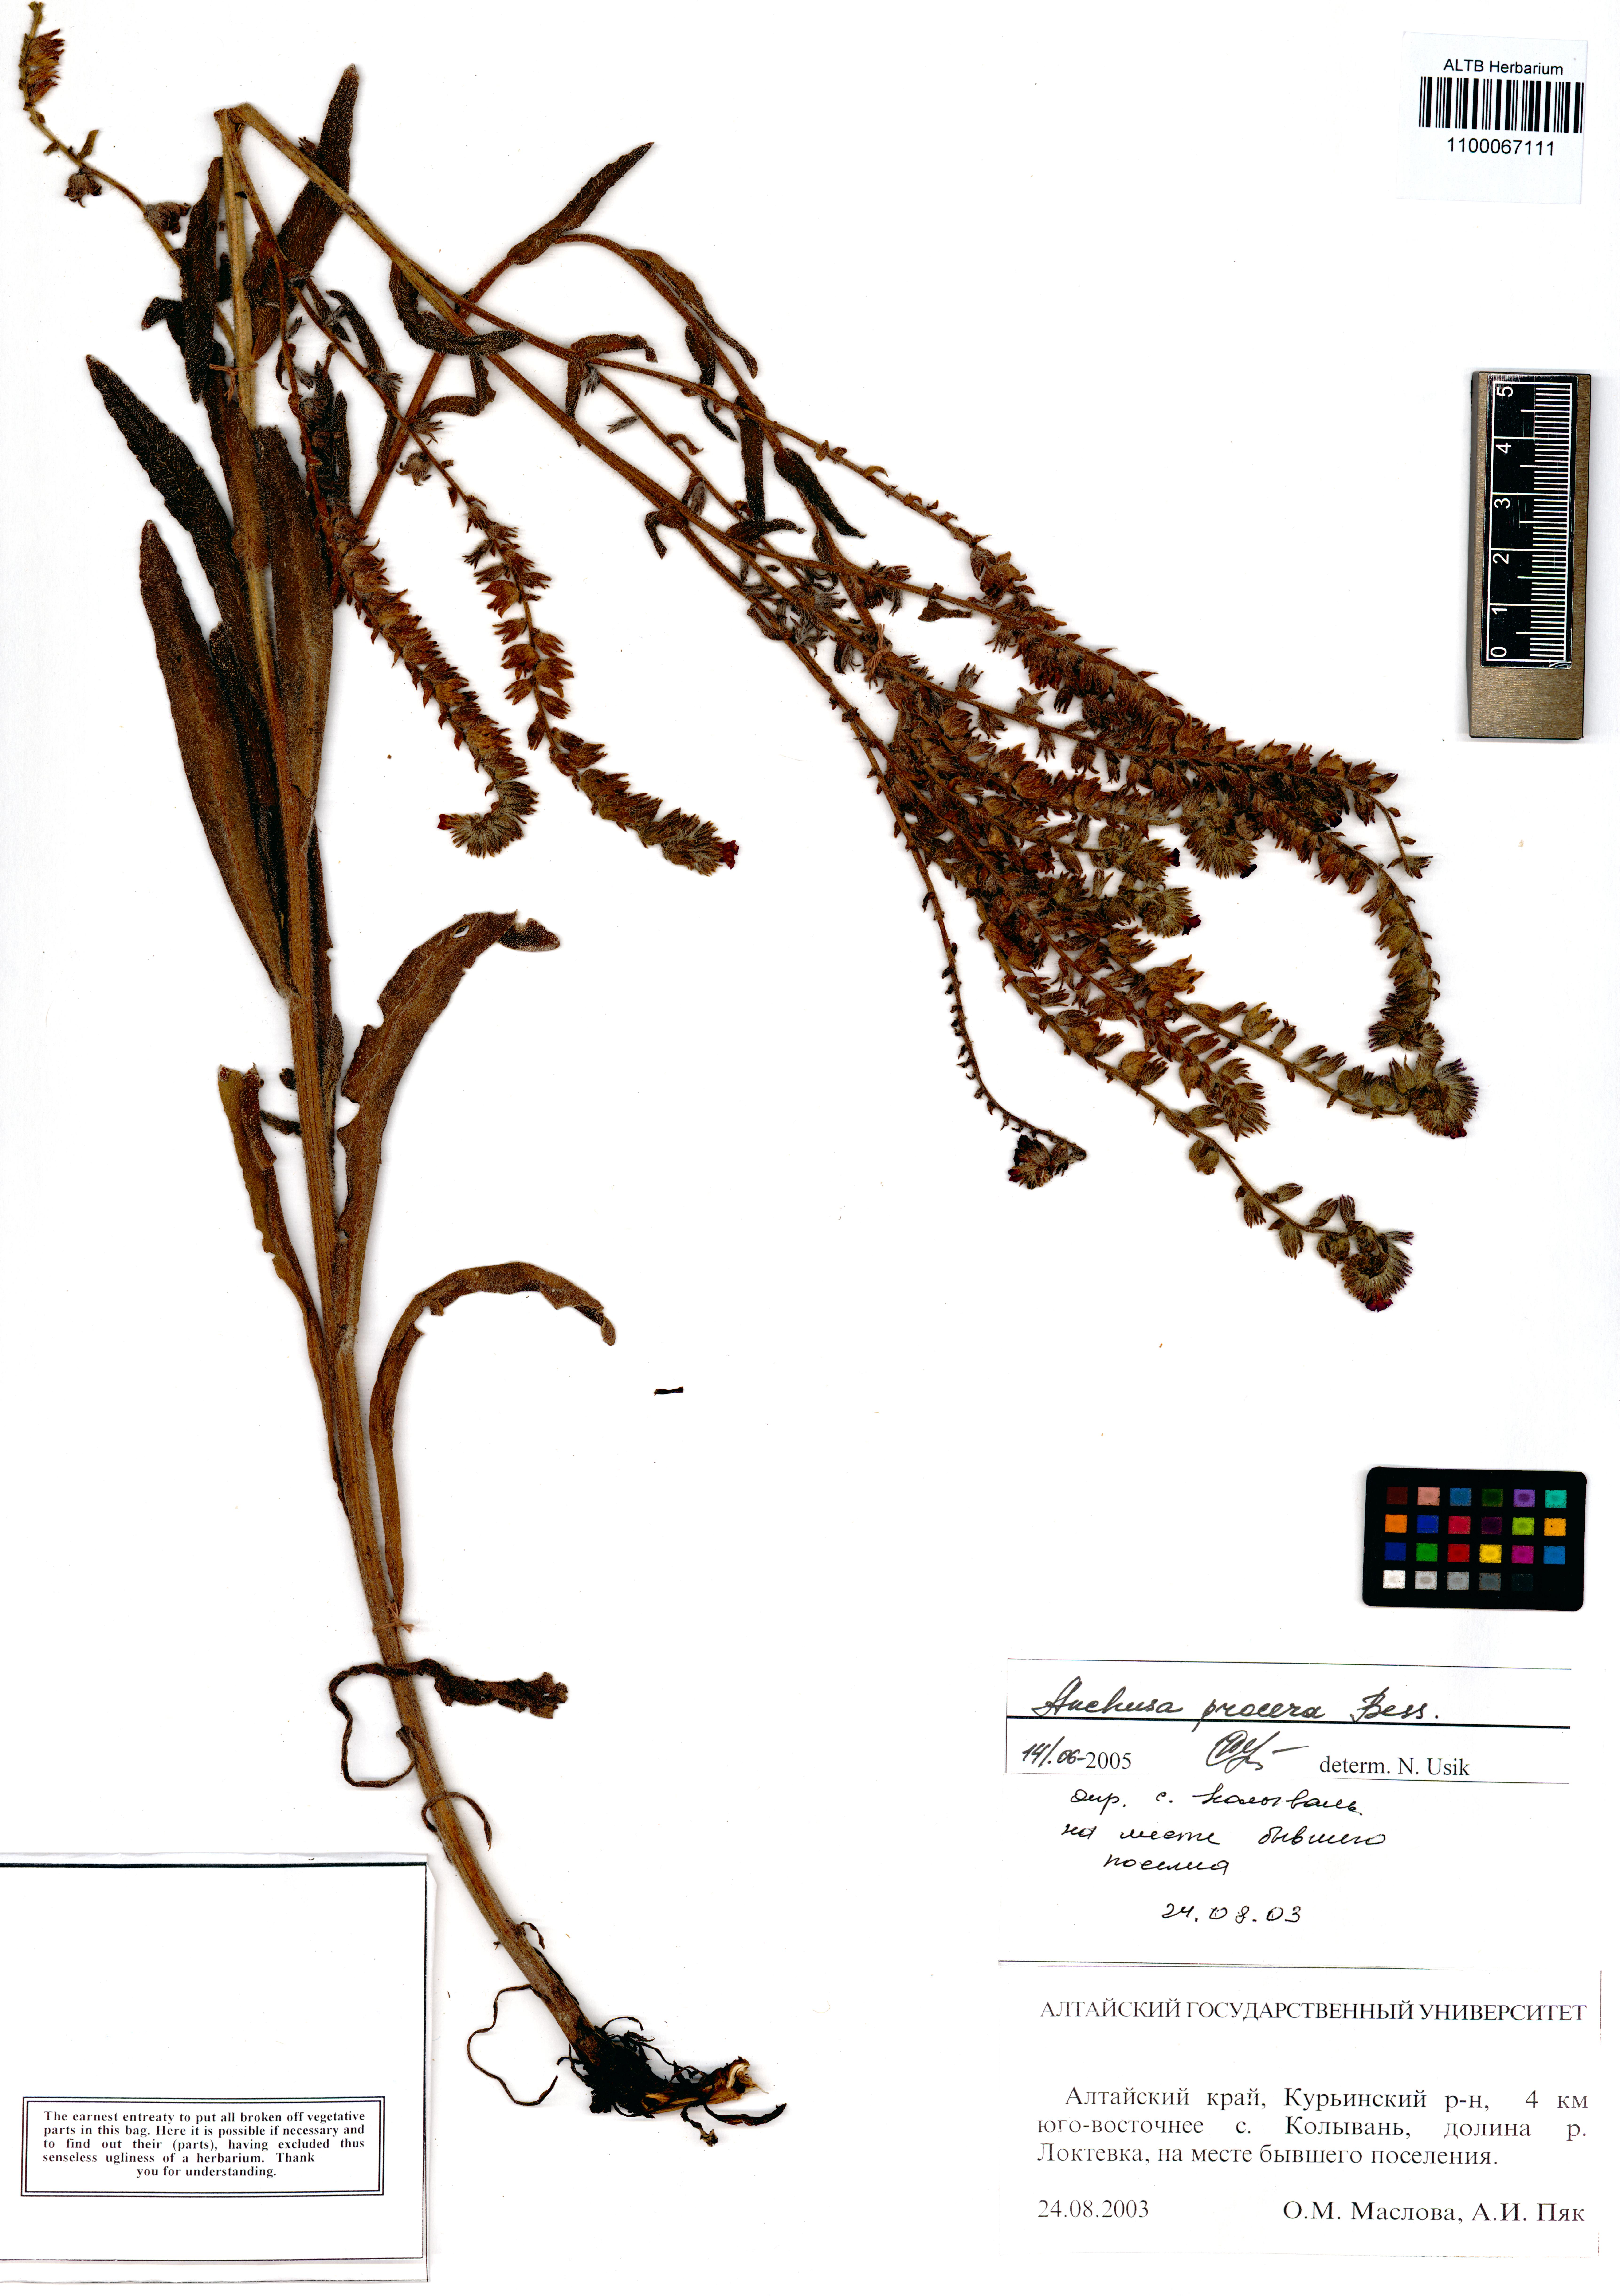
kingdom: Plantae
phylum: Tracheophyta
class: Magnoliopsida
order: Boraginales
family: Boraginaceae
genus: Anchusa
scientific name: Anchusa procera
